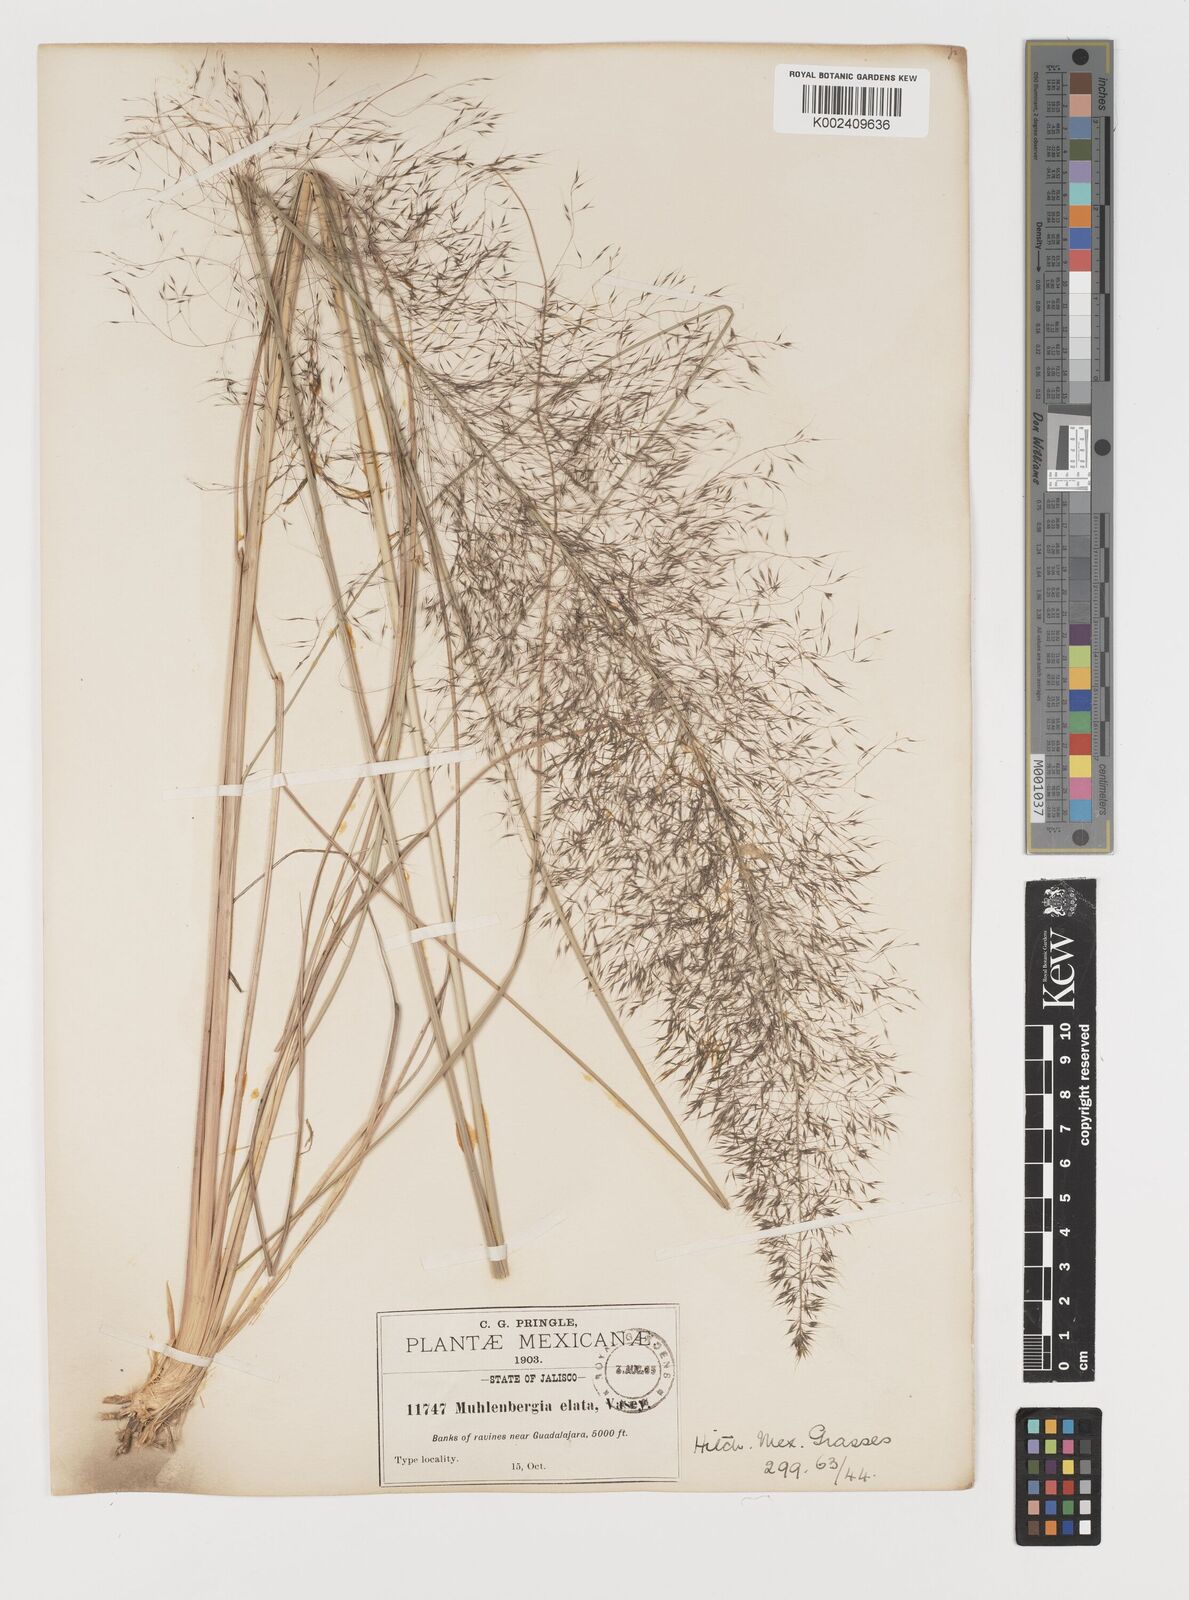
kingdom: Plantae
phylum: Tracheophyta
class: Liliopsida
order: Poales
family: Poaceae
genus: Muhlenbergia
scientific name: Muhlenbergia stricta
